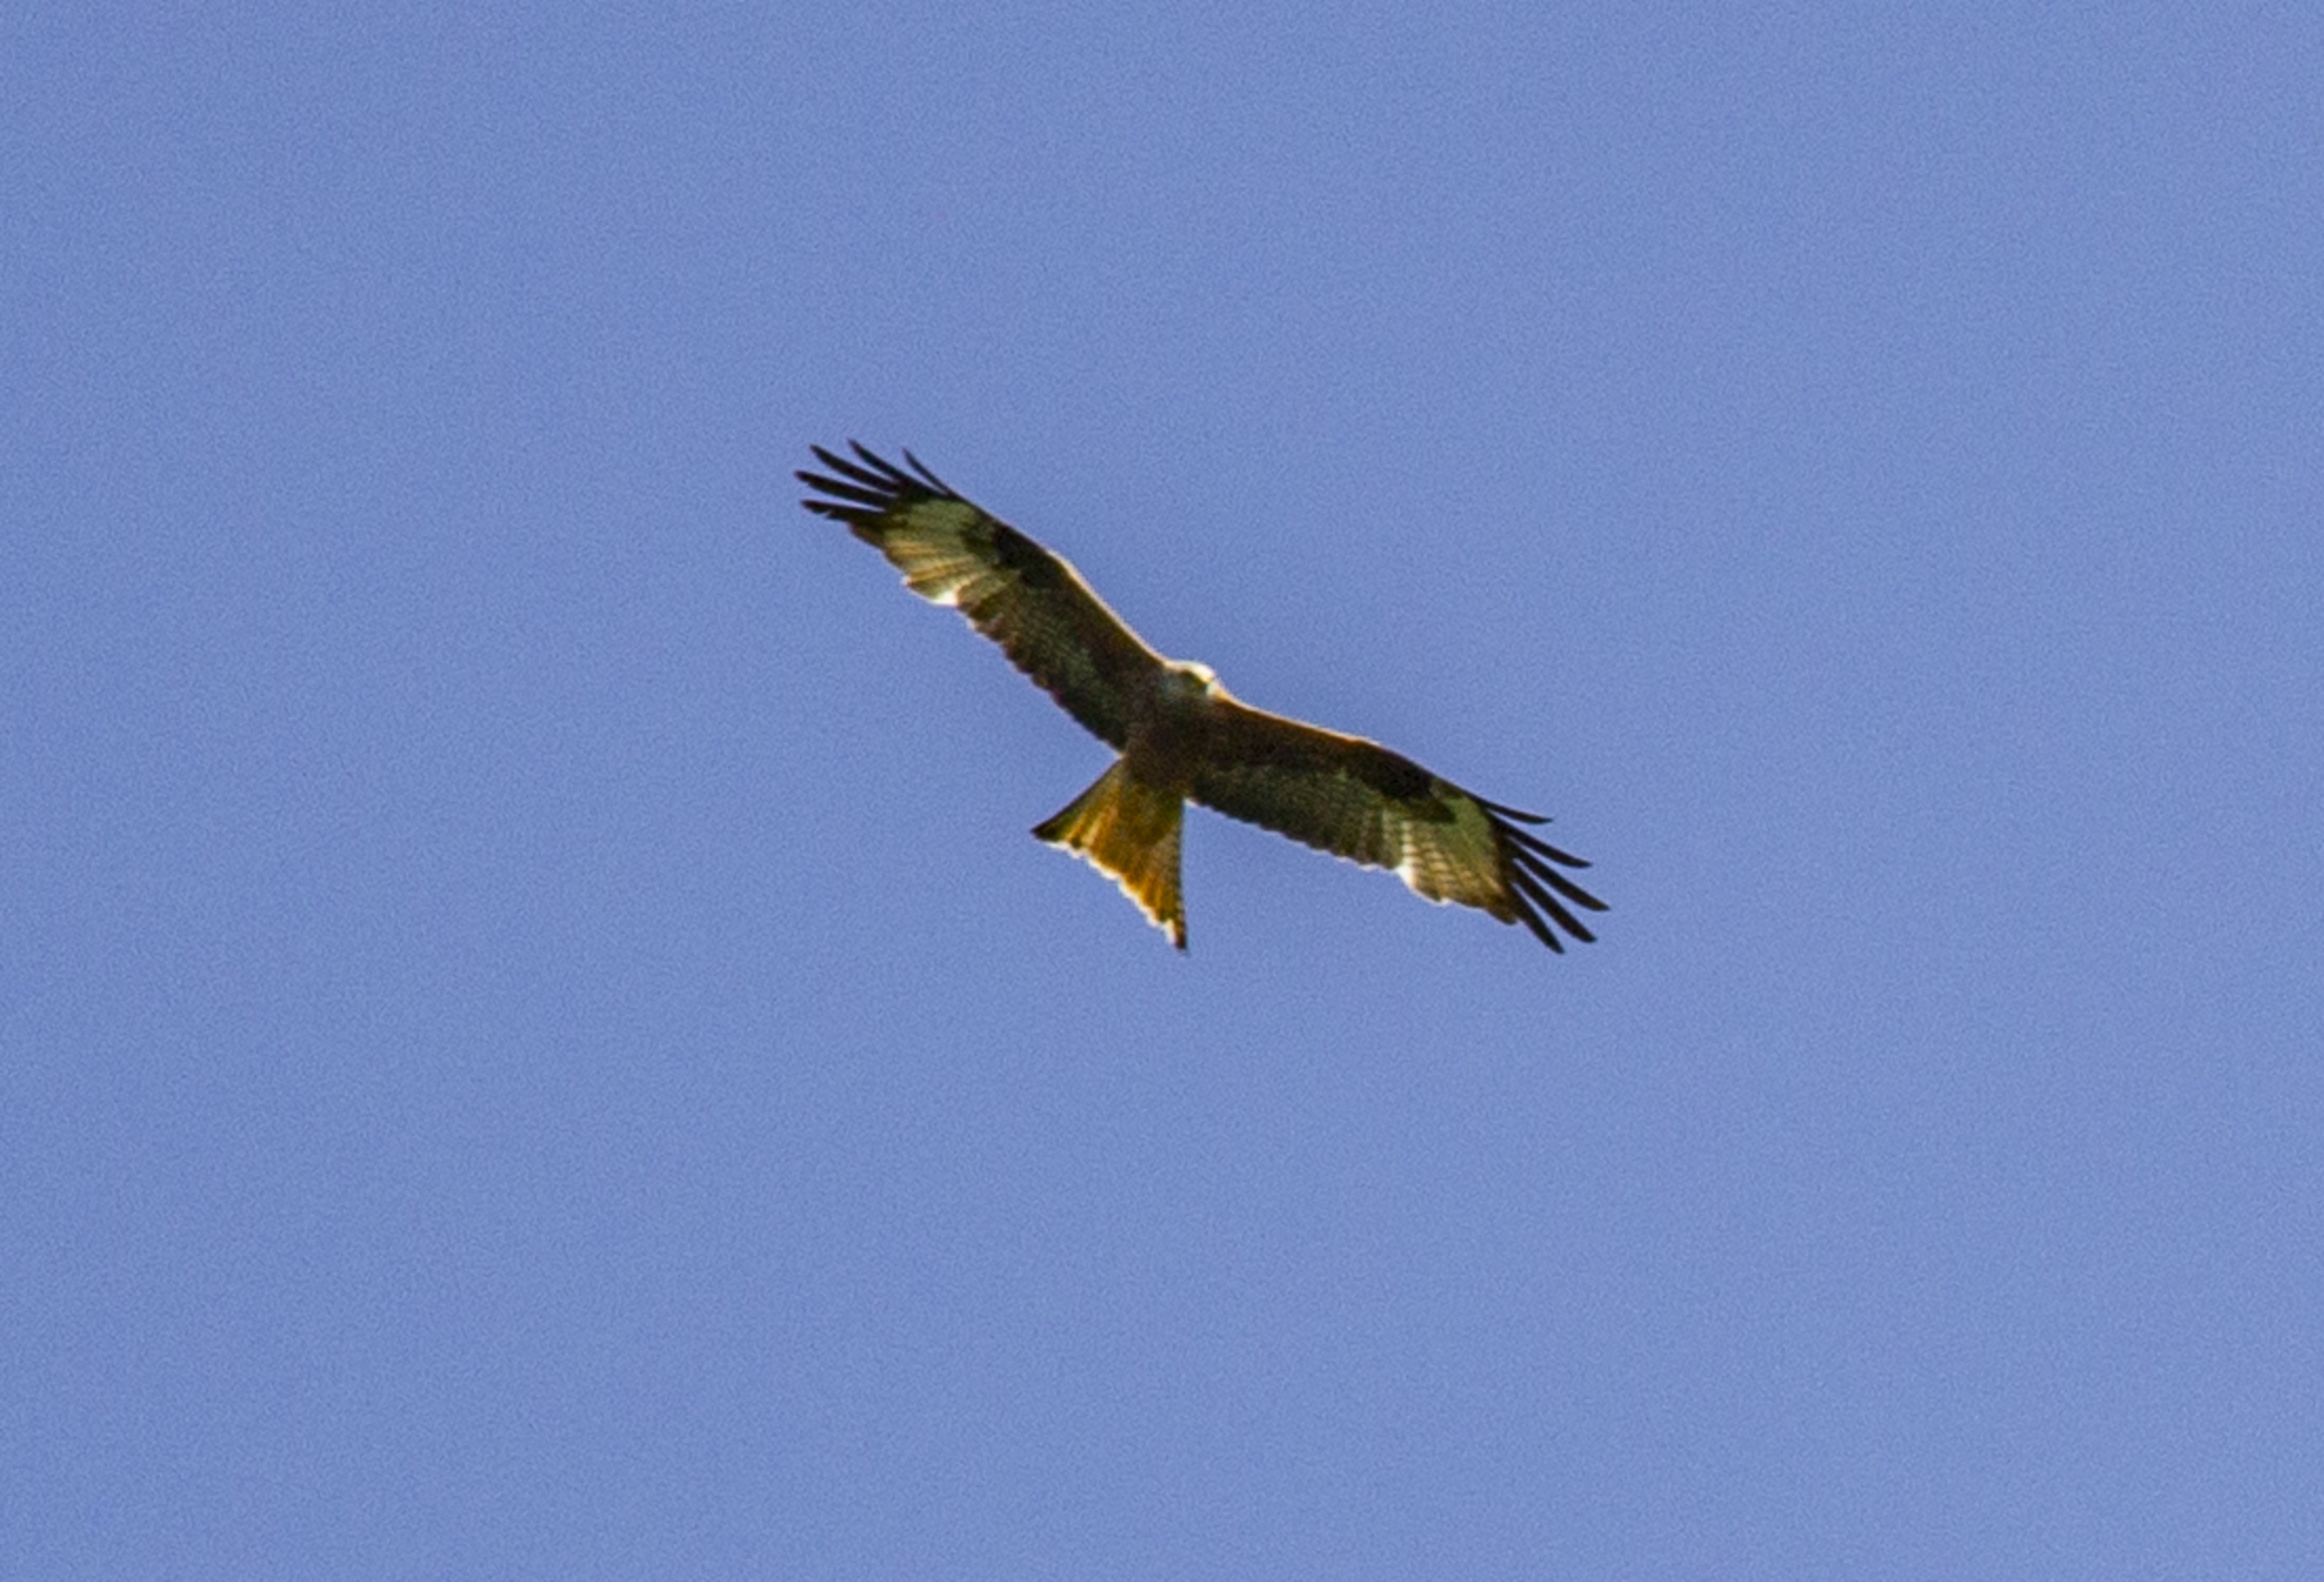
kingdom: Animalia
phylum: Chordata
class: Aves
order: Accipitriformes
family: Accipitridae
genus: Milvus
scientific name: Milvus milvus
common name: Rød glente
